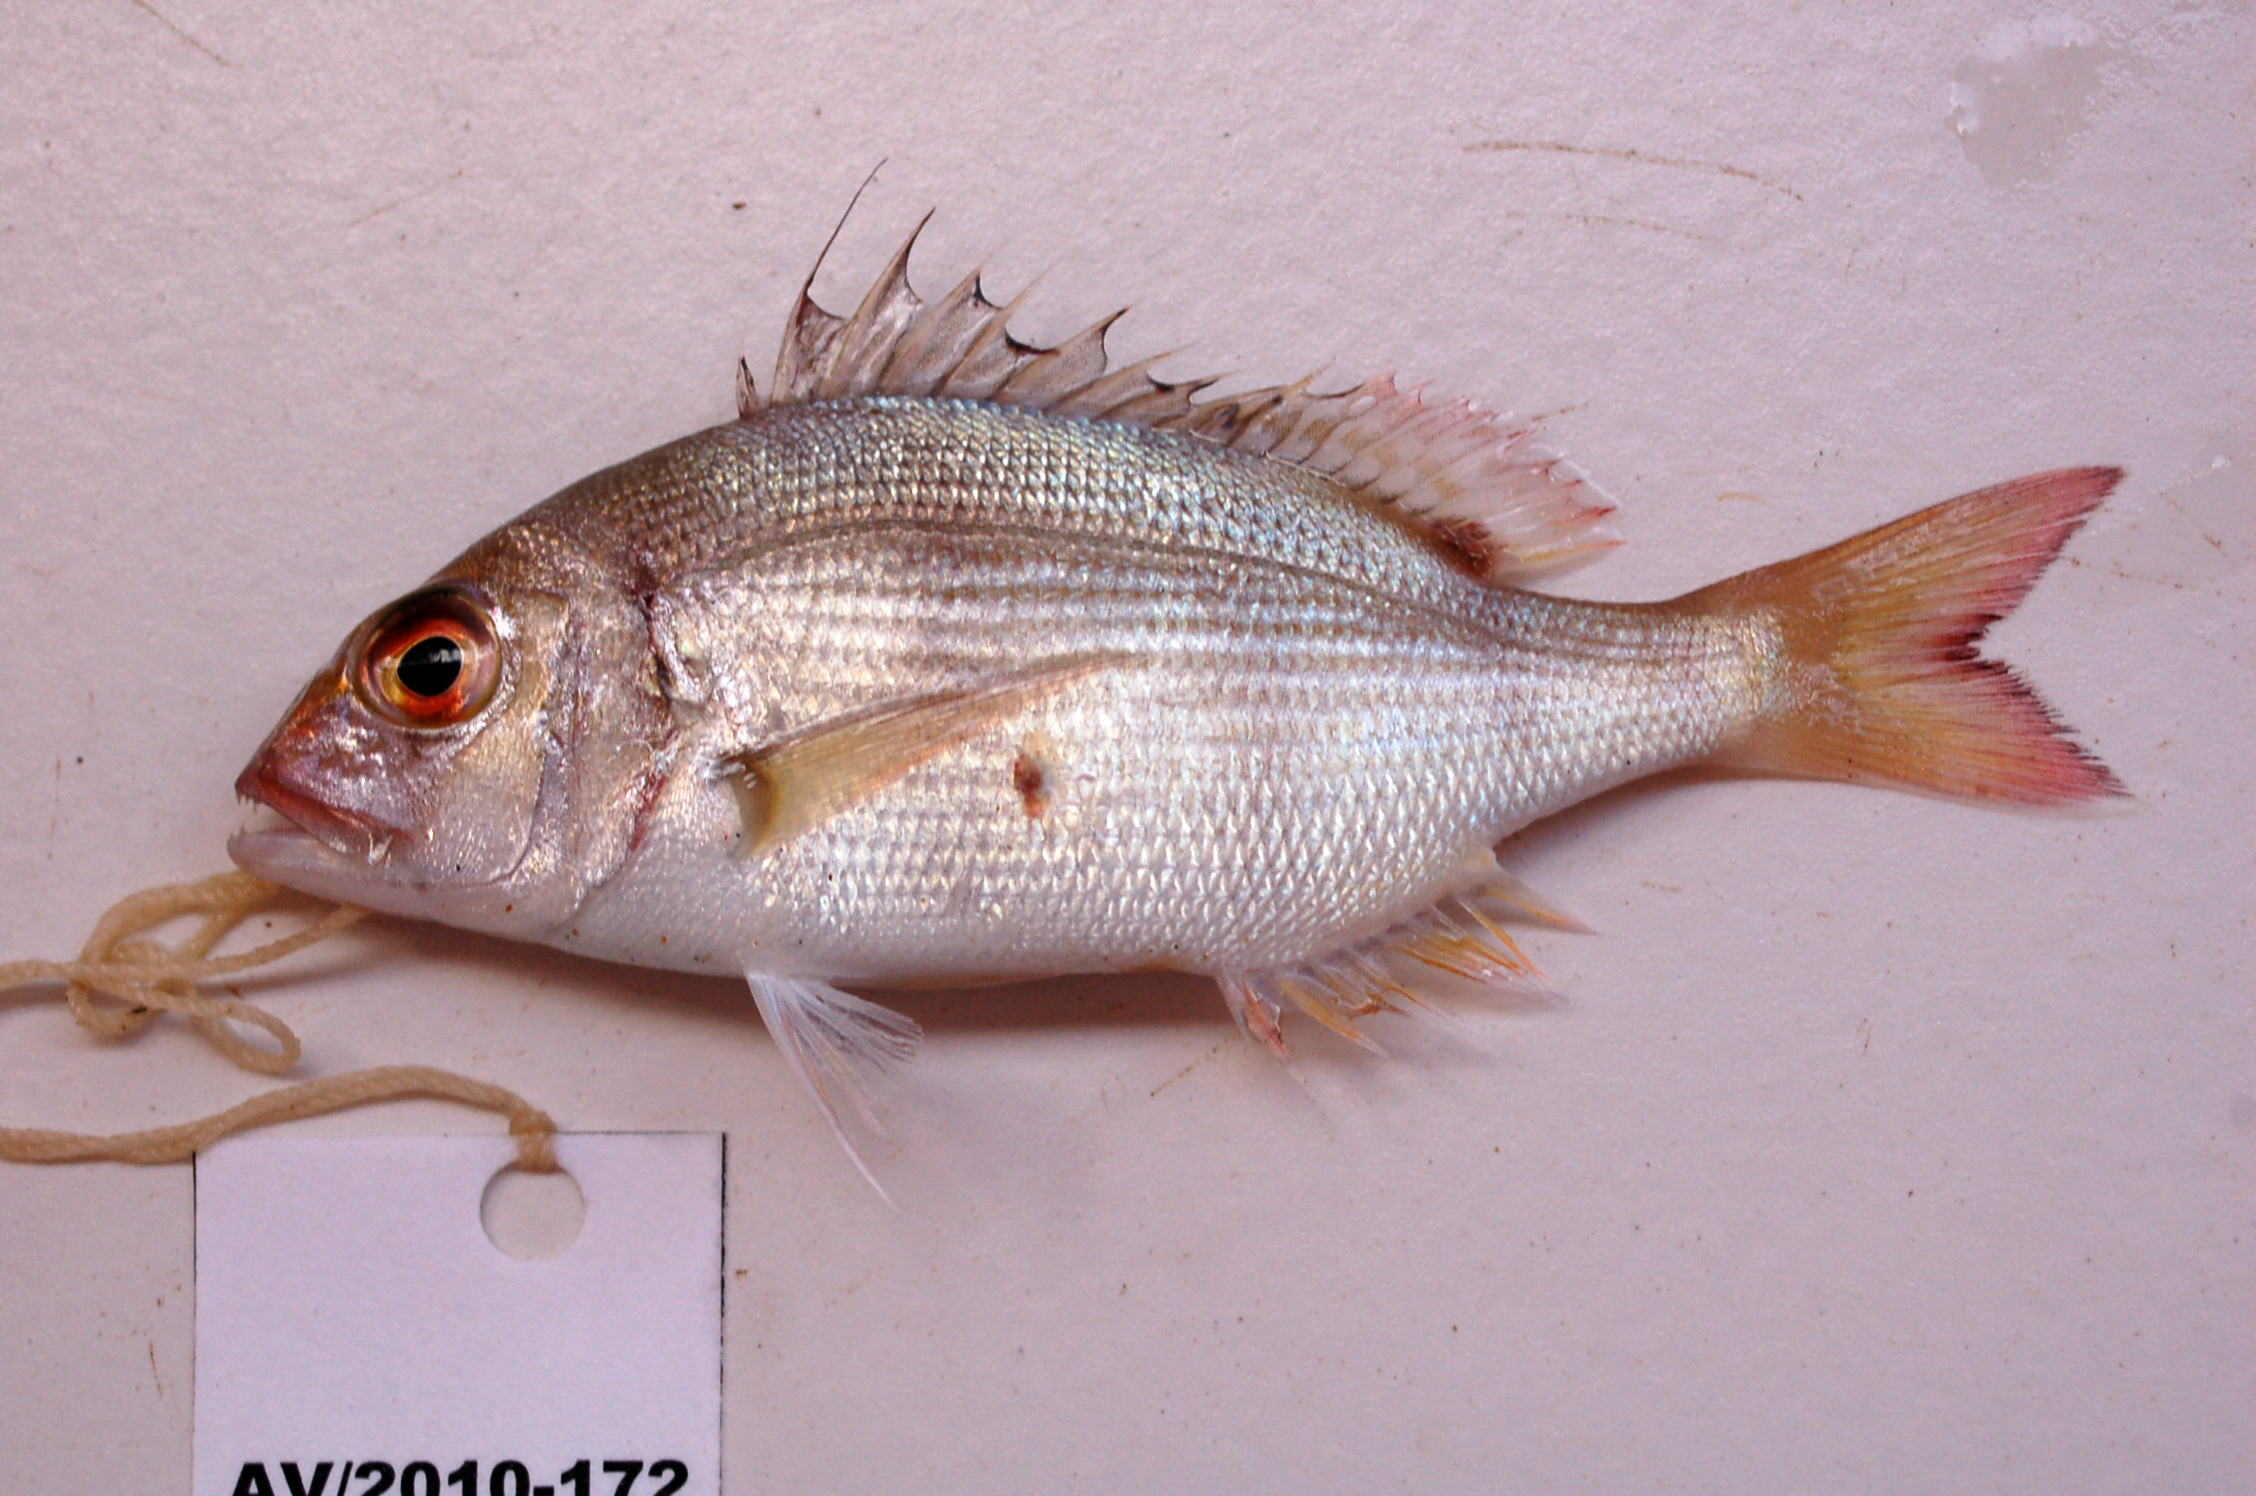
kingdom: Animalia
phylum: Chordata
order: Perciformes
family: Sparidae
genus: Cheimerius
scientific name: Cheimerius nufar
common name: Soldier
